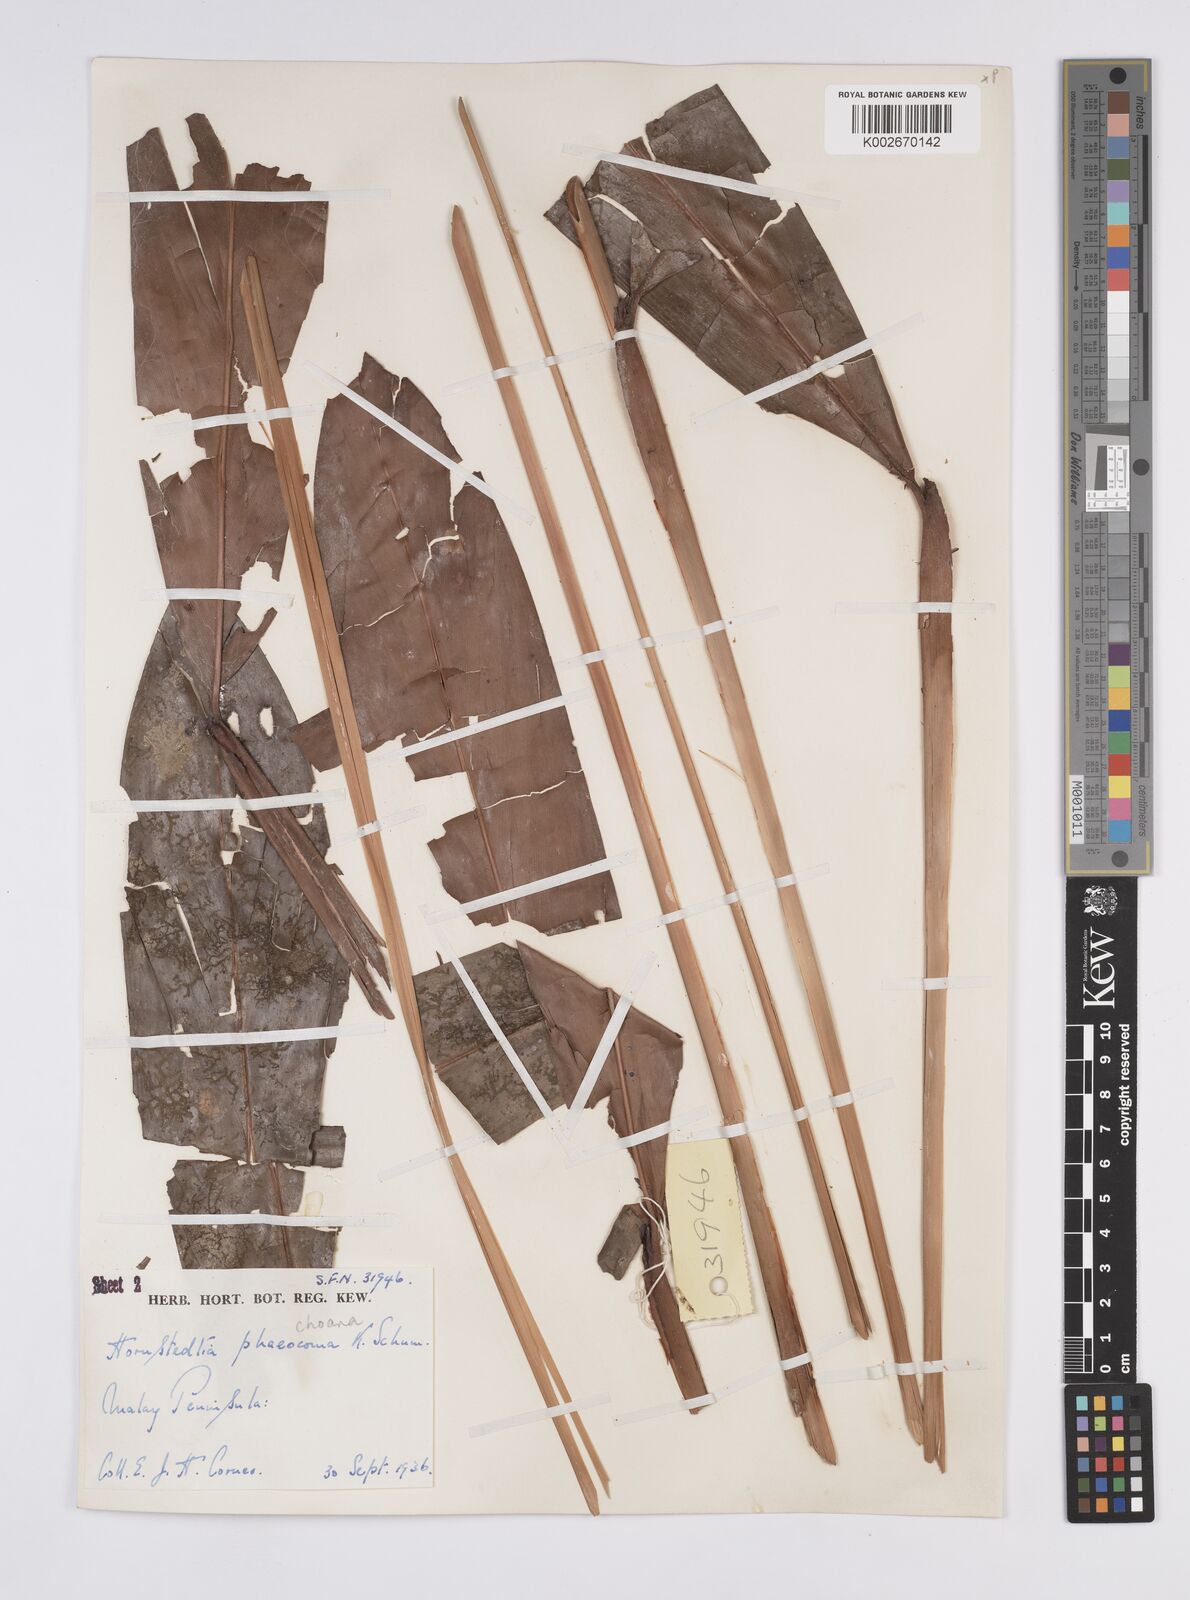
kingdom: Plantae
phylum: Tracheophyta
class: Liliopsida
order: Zingiberales
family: Zingiberaceae
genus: Hornstedtia
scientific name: Hornstedtia phaeochoana
